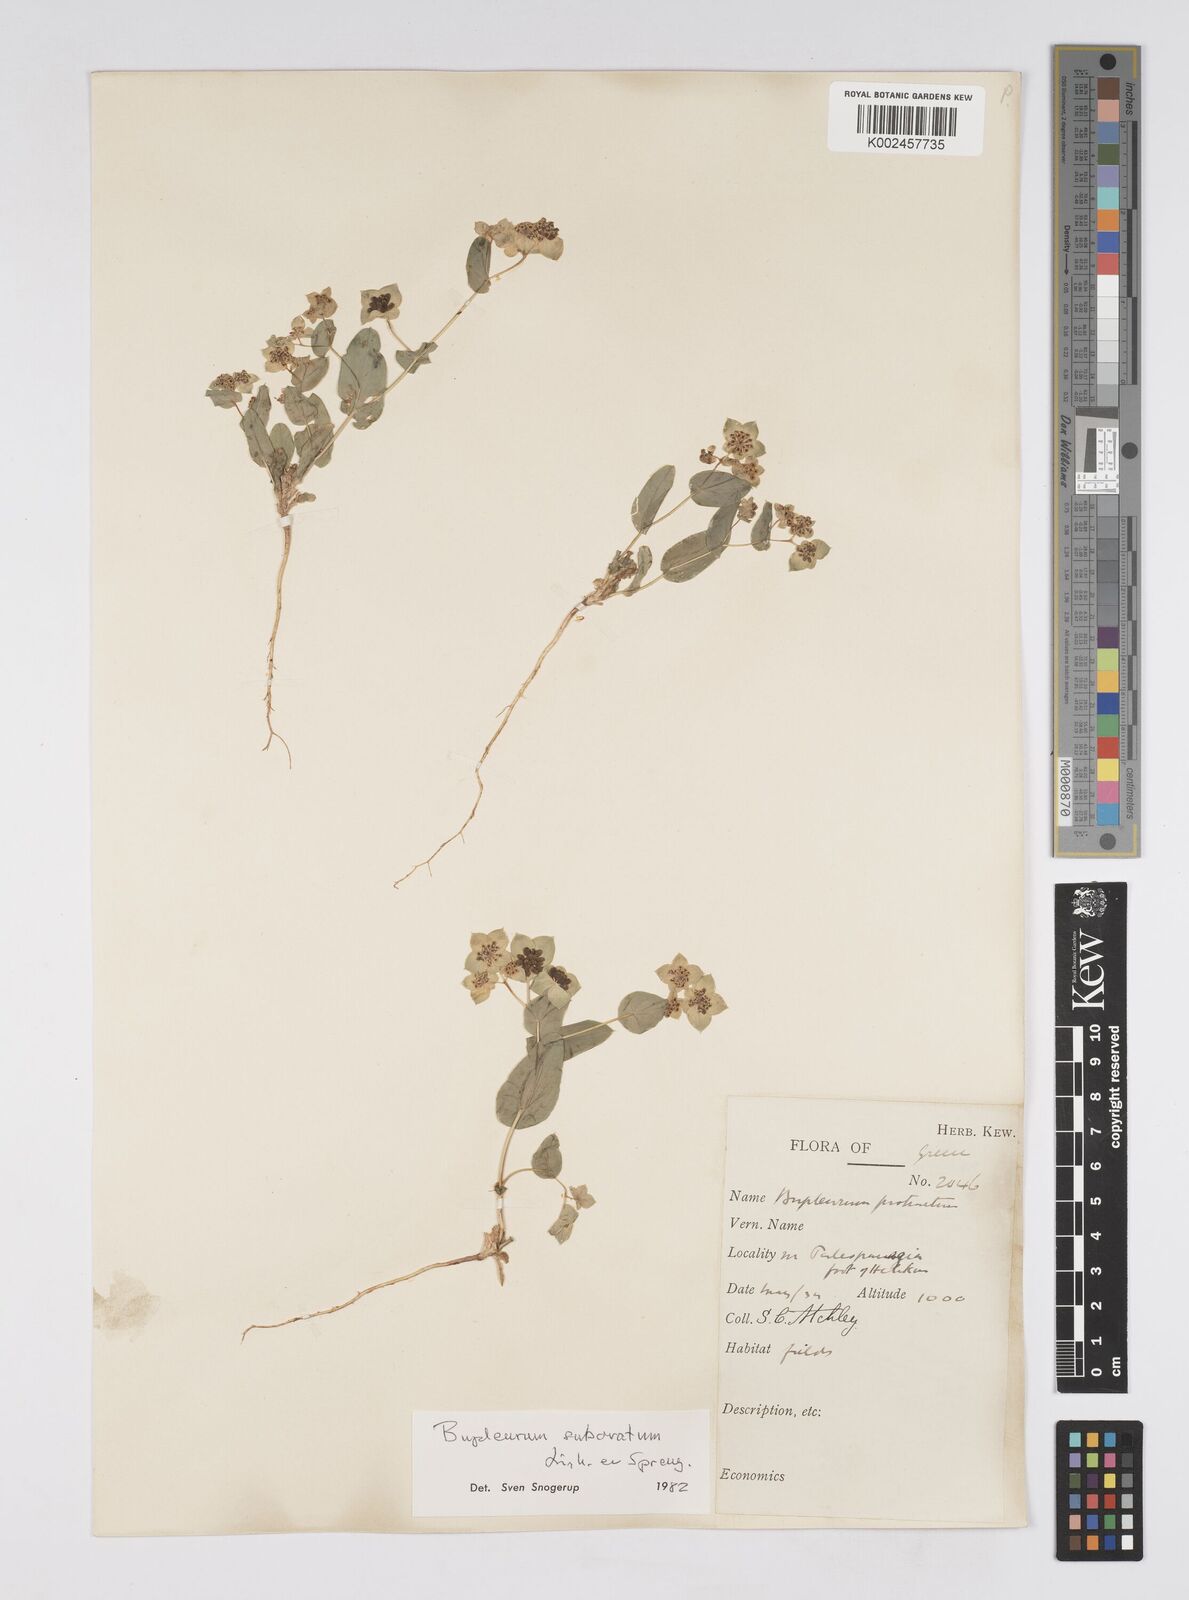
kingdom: Plantae
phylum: Tracheophyta
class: Magnoliopsida
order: Apiales
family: Apiaceae
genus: Bupleurum
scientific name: Bupleurum subovatum
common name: False thorow-wax
